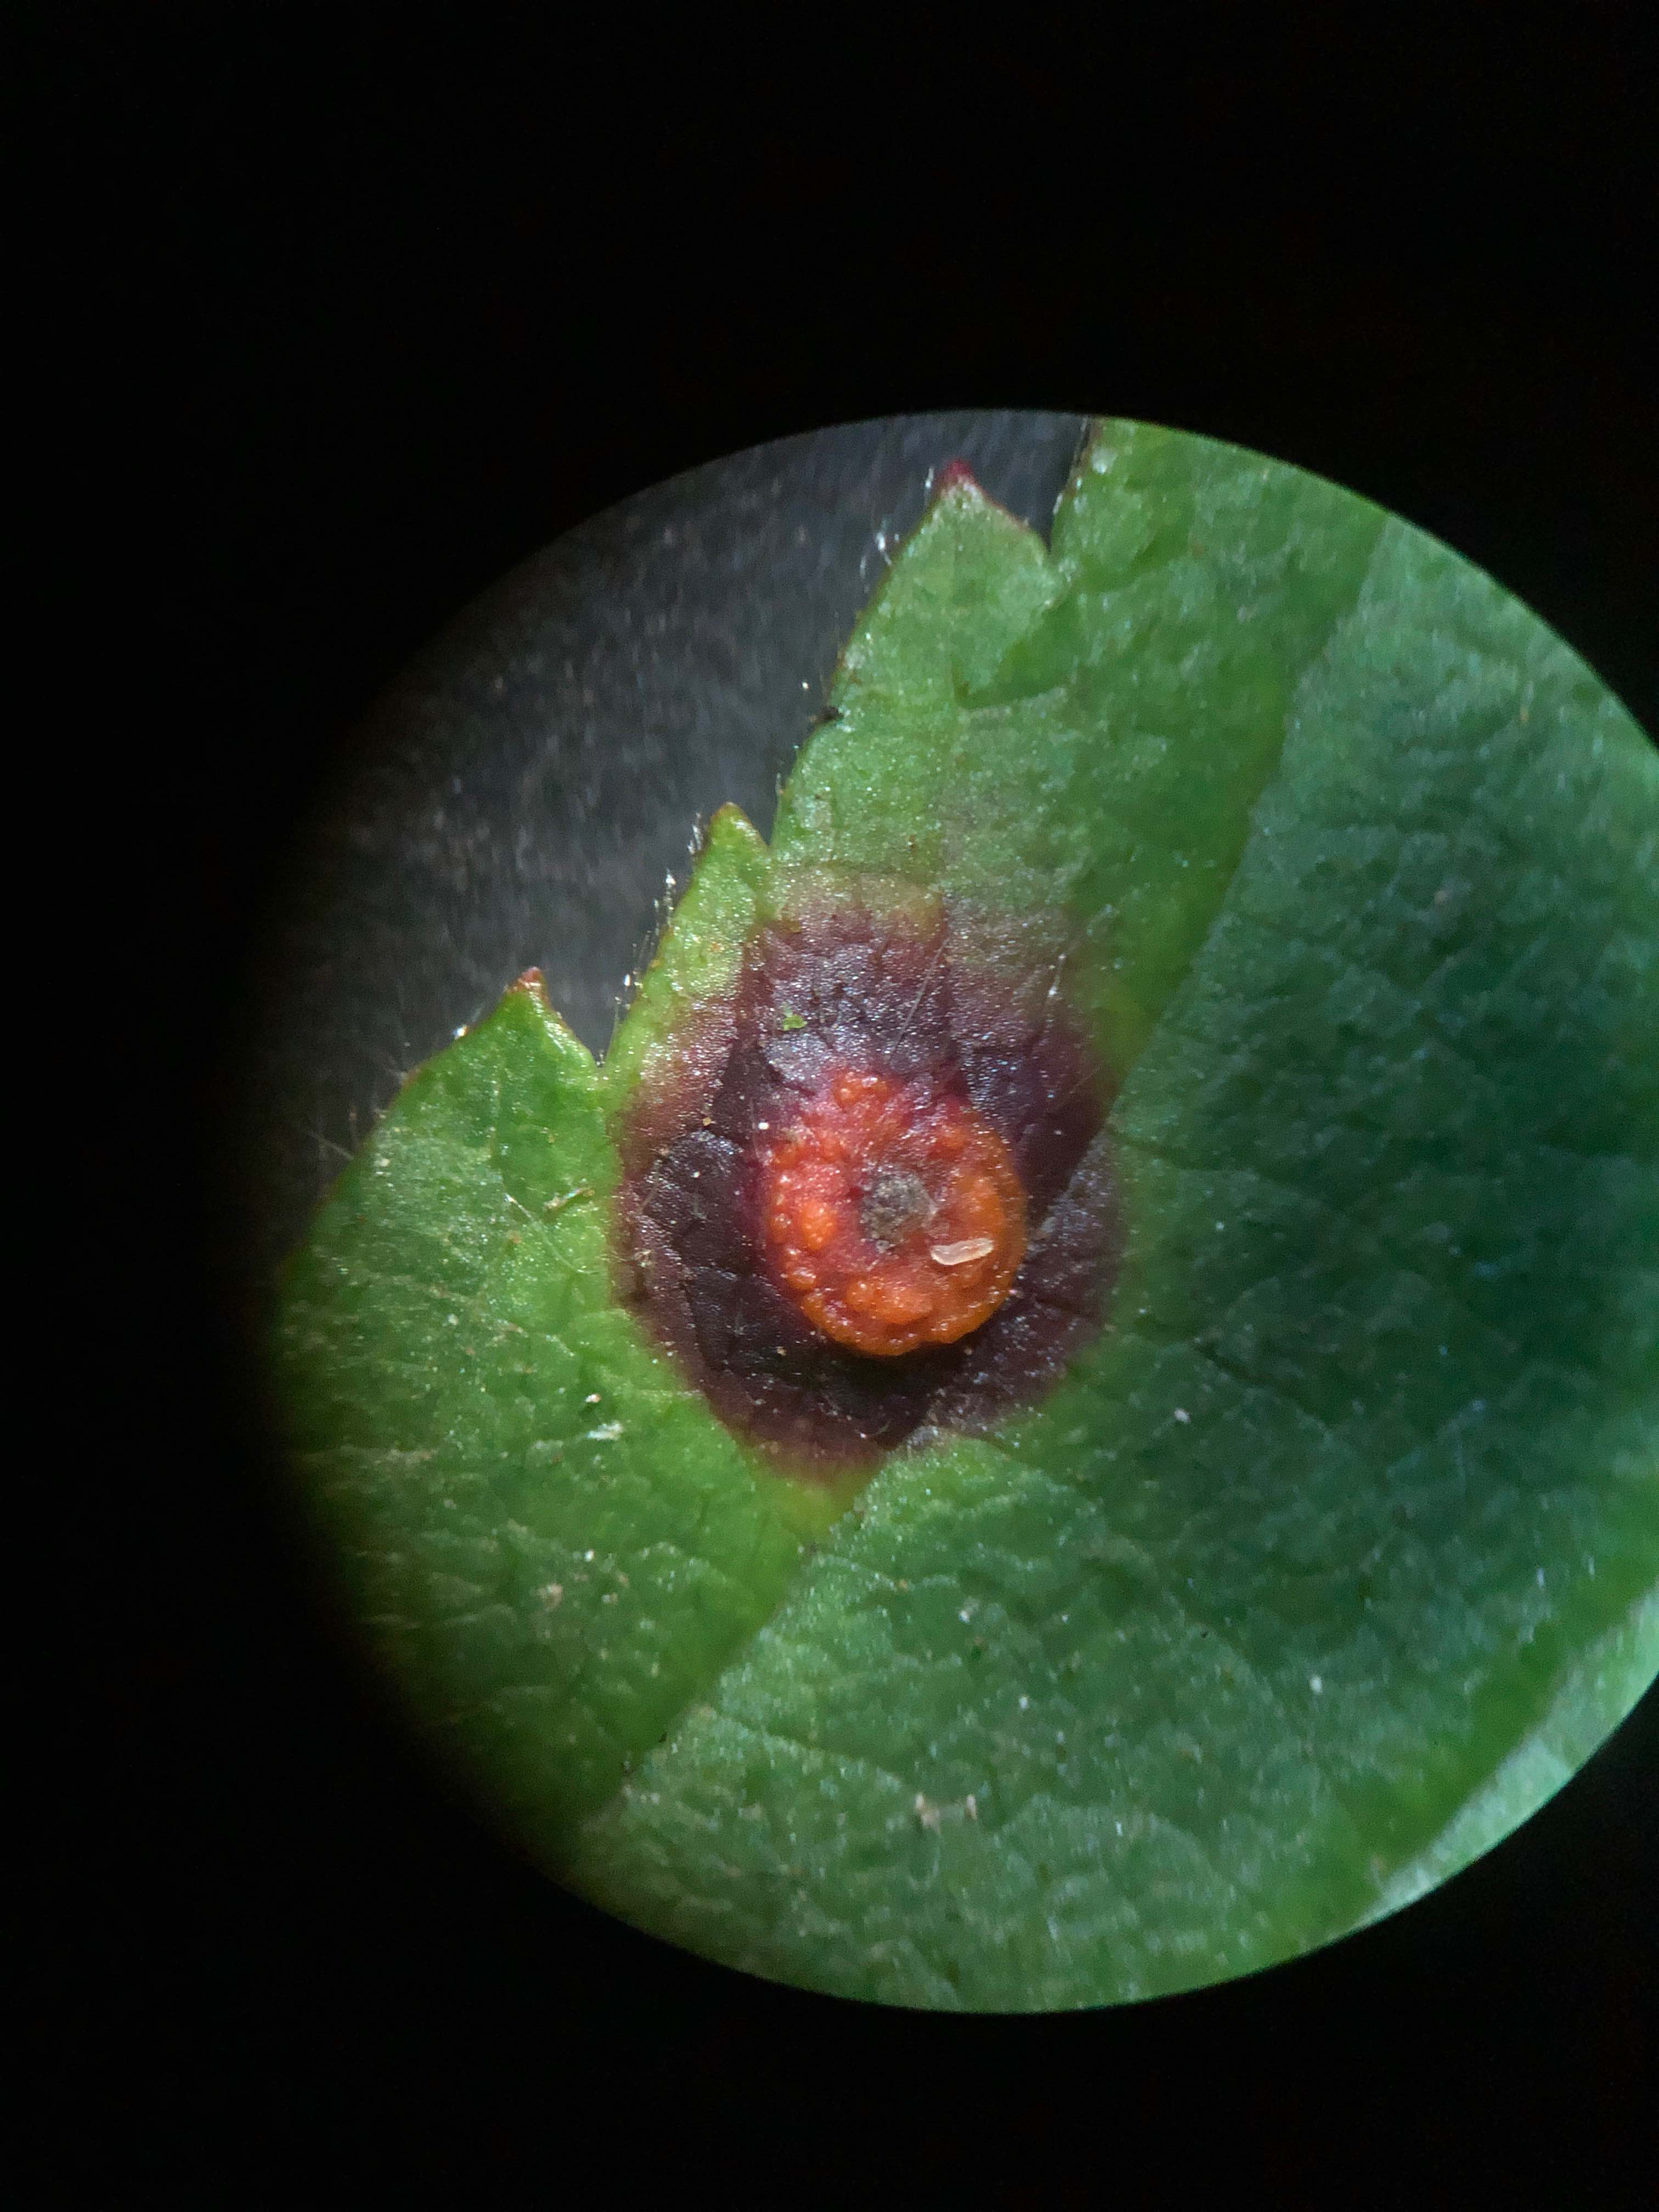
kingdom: Fungi
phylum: Basidiomycota
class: Pucciniomycetes
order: Pucciniales
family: Phragmidiaceae
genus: Phragmidium
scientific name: Phragmidium violaceum
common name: violet flercellerust
